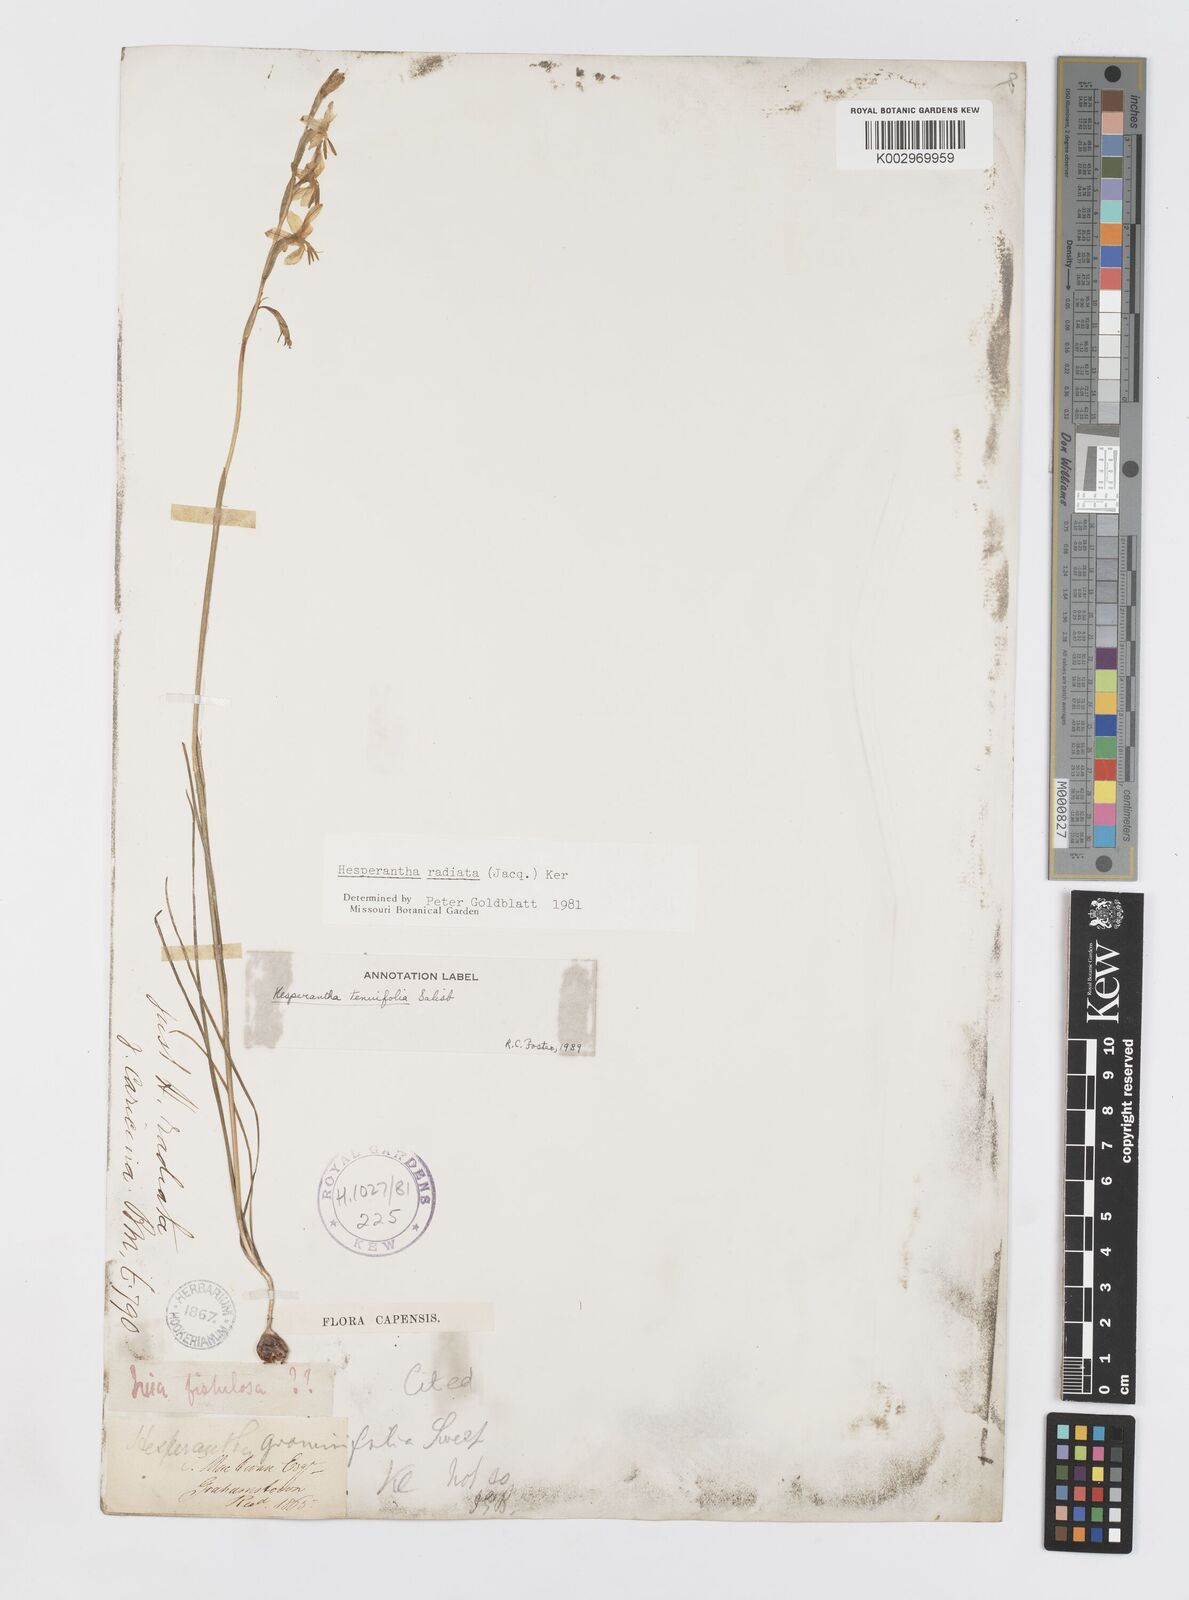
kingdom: Plantae
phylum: Tracheophyta
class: Liliopsida
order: Asparagales
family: Iridaceae
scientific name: Iridaceae
